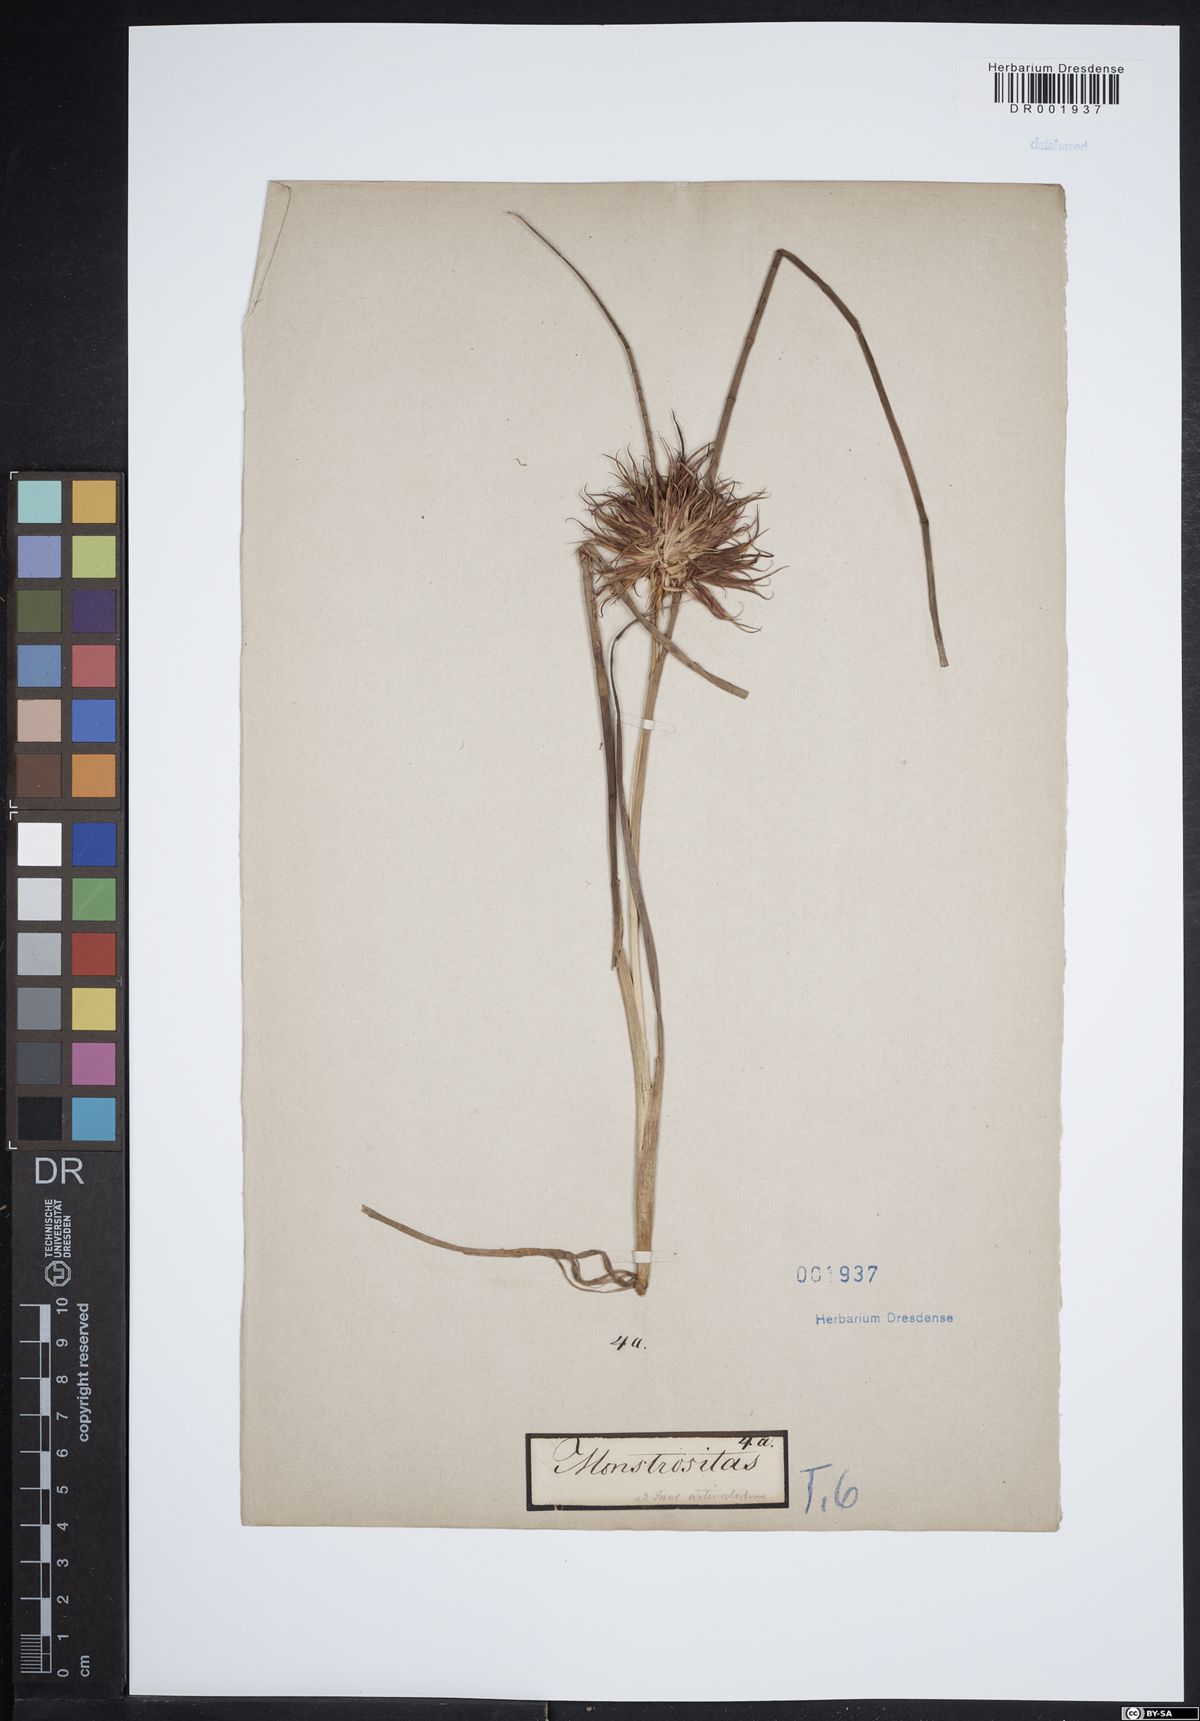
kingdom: Plantae
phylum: Tracheophyta
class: Liliopsida
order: Poales
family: Juncaceae
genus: Juncus
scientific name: Juncus articulatus
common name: Jointed rush
